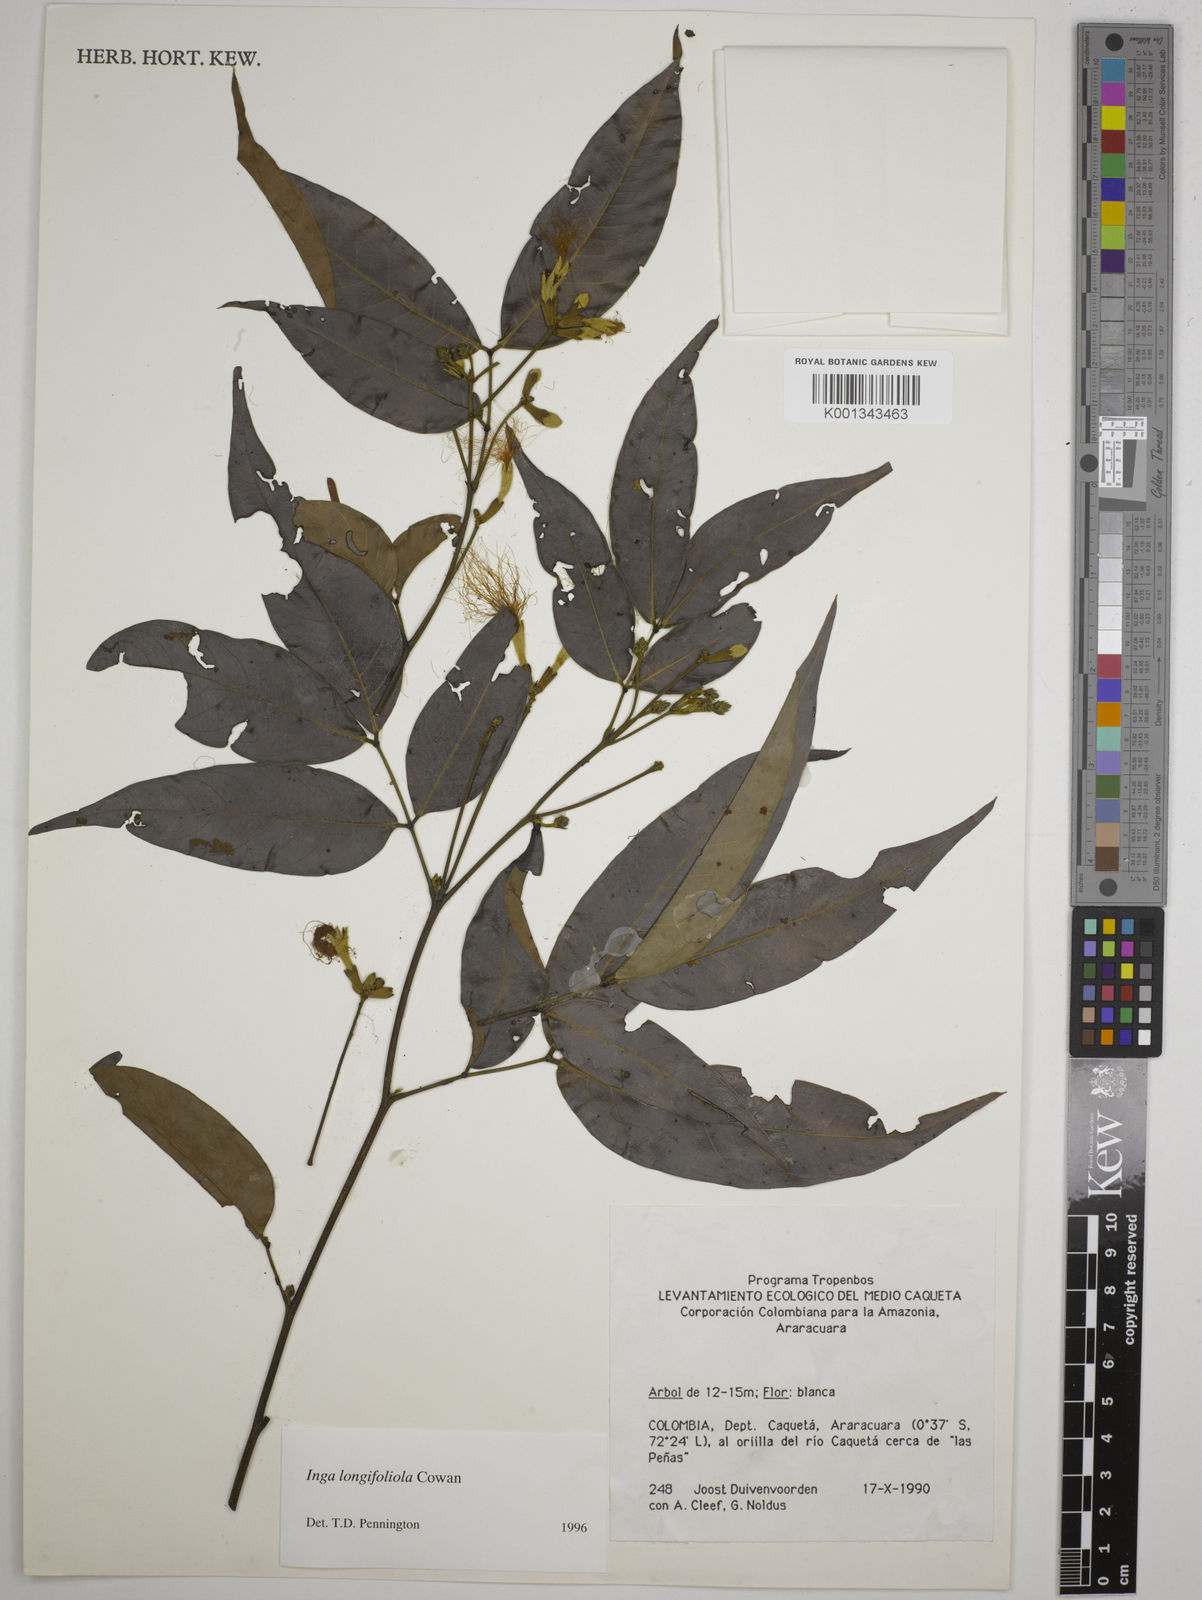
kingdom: Plantae
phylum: Tracheophyta
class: Magnoliopsida
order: Fabales
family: Fabaceae
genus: Inga
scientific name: Inga longifoliola
